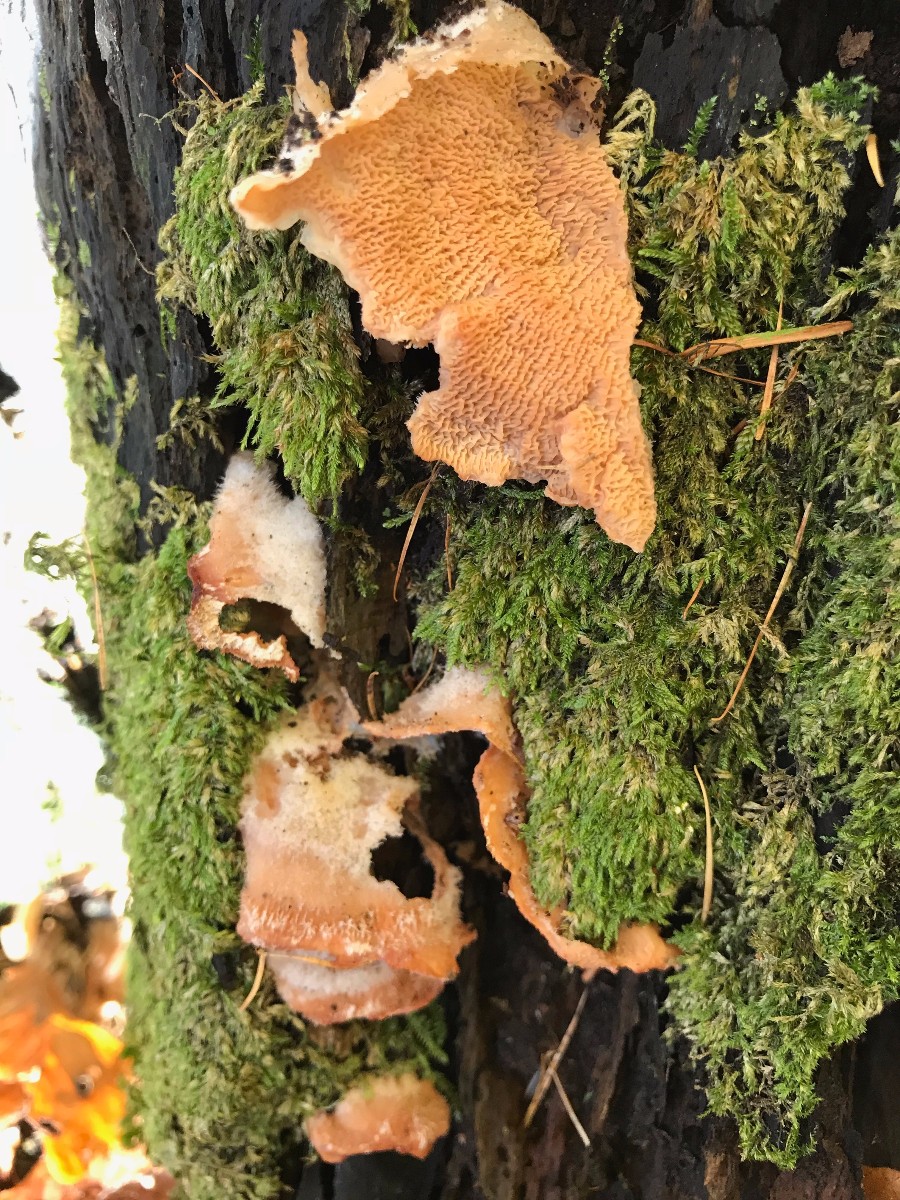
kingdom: Fungi
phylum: Basidiomycota
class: Agaricomycetes
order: Polyporales
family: Meruliaceae
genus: Phlebia
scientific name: Phlebia tremellosa
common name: bævrende åresvamp
